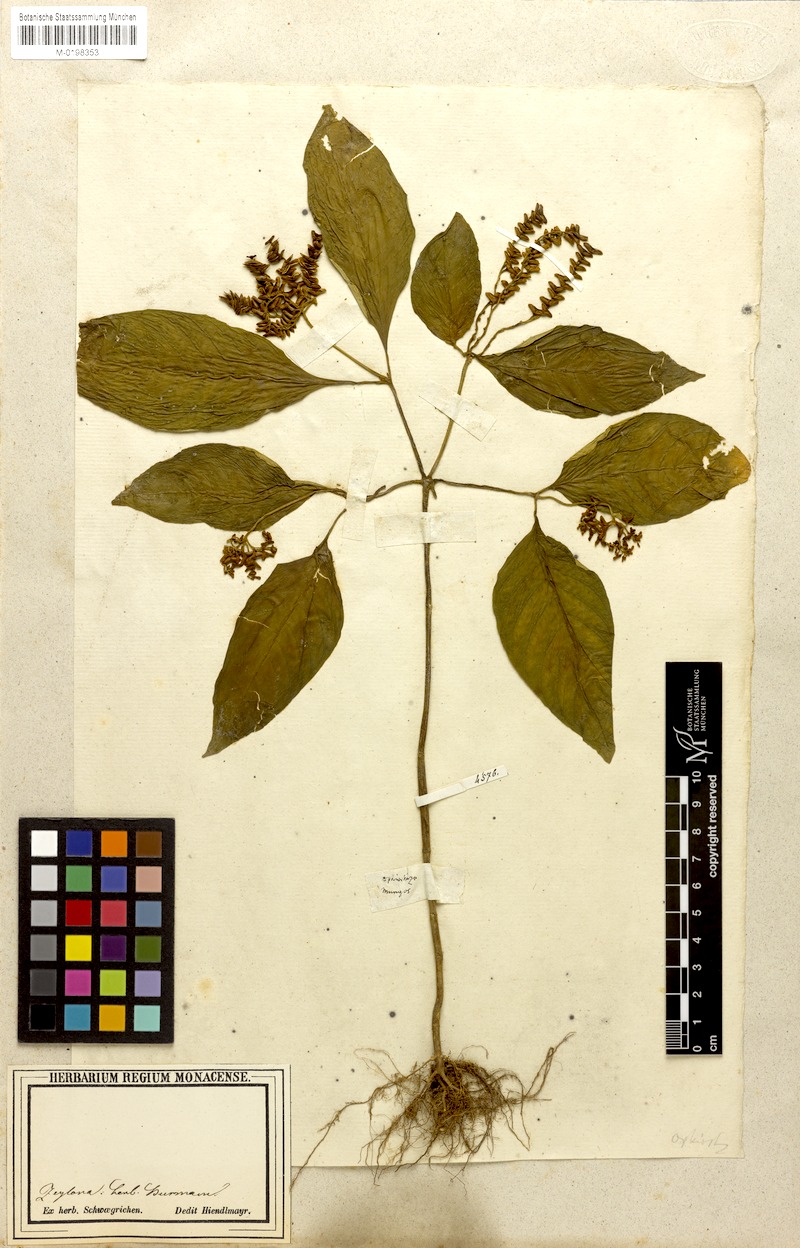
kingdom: Plantae
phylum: Tracheophyta
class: Magnoliopsida
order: Gentianales
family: Rubiaceae
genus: Ophiorrhiza
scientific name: Ophiorrhiza mungos
